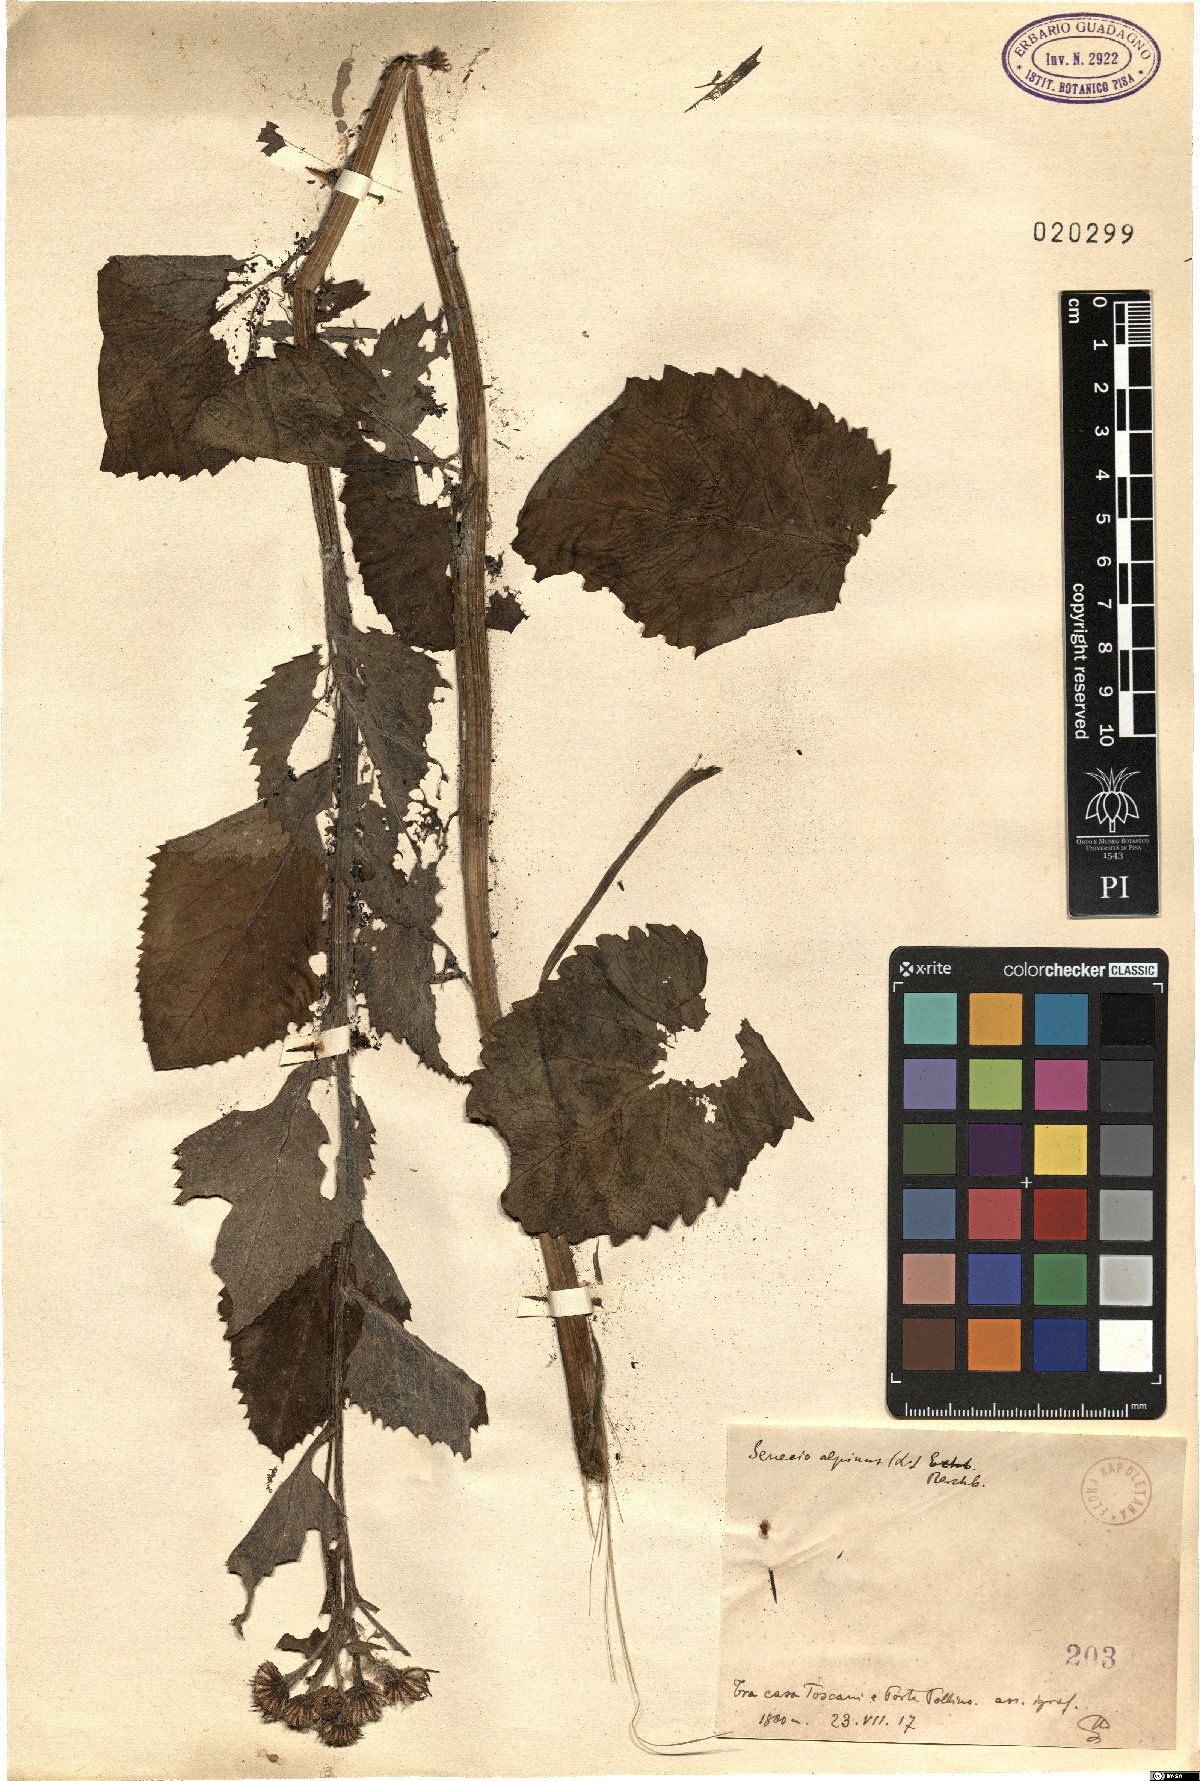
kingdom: Plantae
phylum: Tracheophyta
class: Magnoliopsida
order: Asterales
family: Asteraceae
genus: Jacobaea
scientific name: Jacobaea alpina
